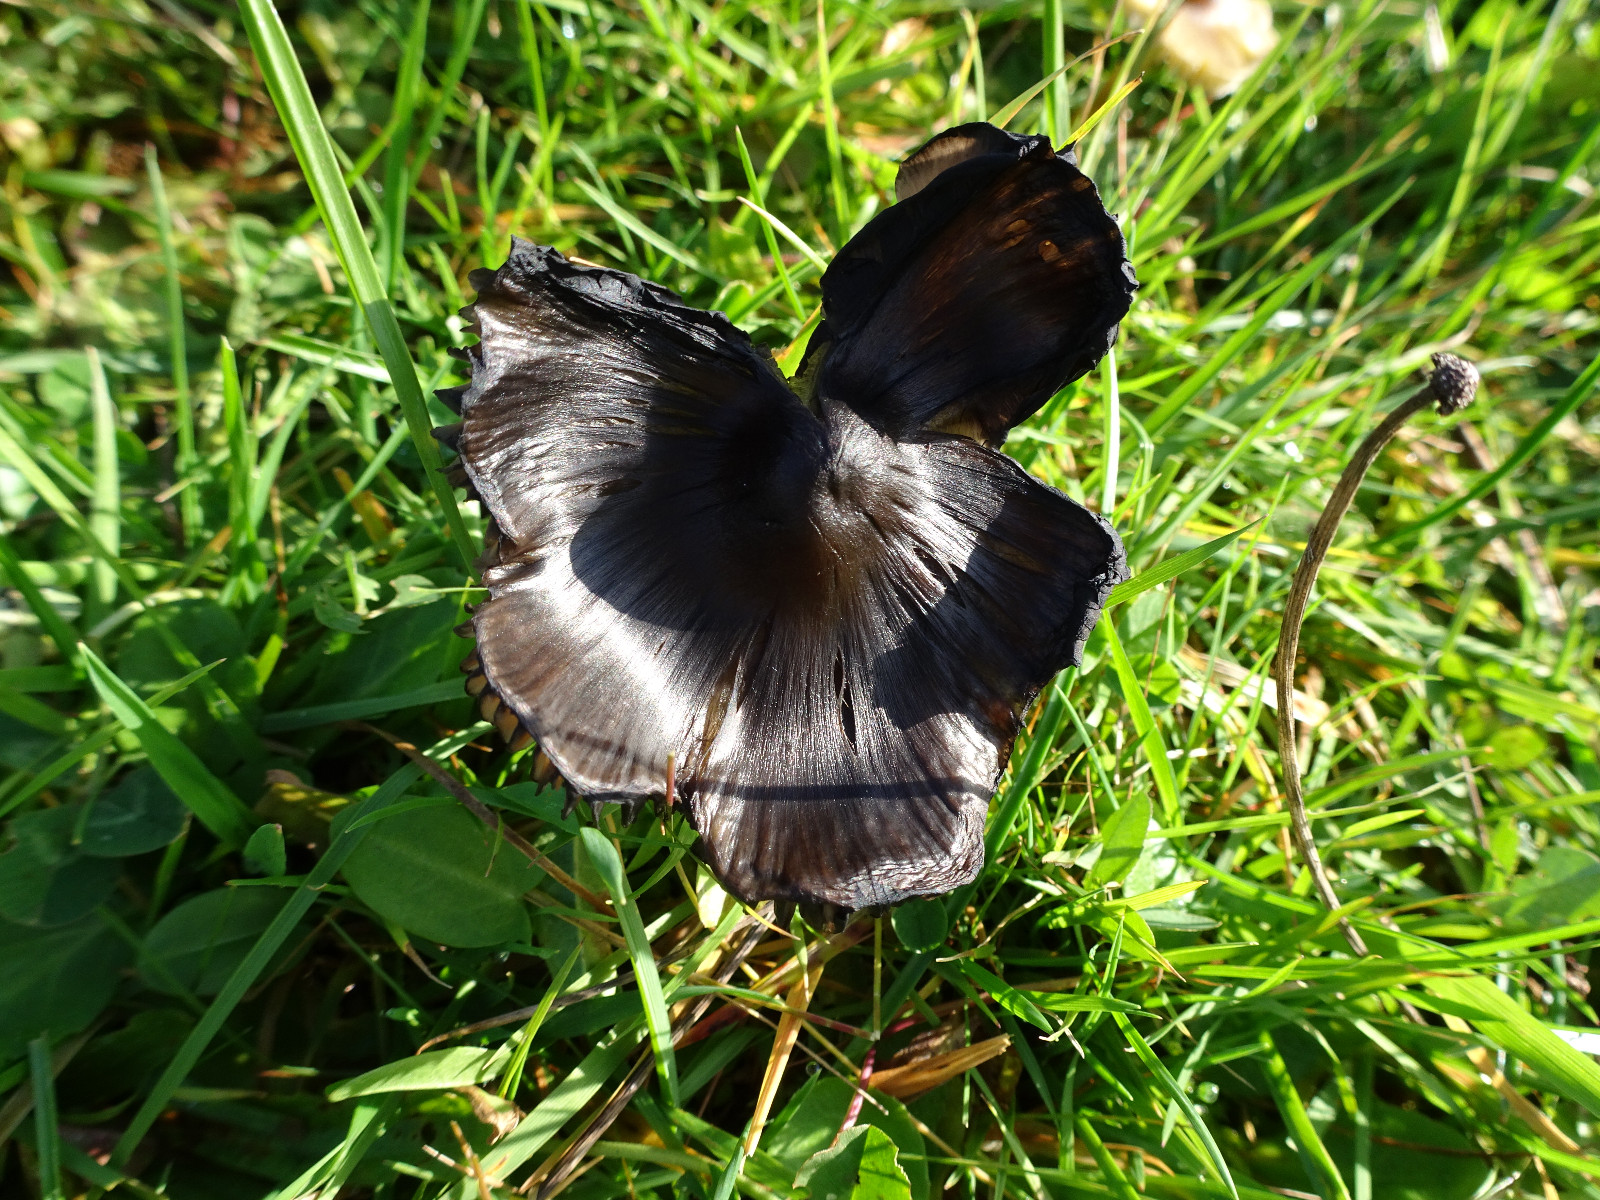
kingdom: Fungi
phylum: Basidiomycota
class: Agaricomycetes
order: Agaricales
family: Hygrophoraceae
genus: Hygrocybe
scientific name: Hygrocybe conica
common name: kegle-vokshat
